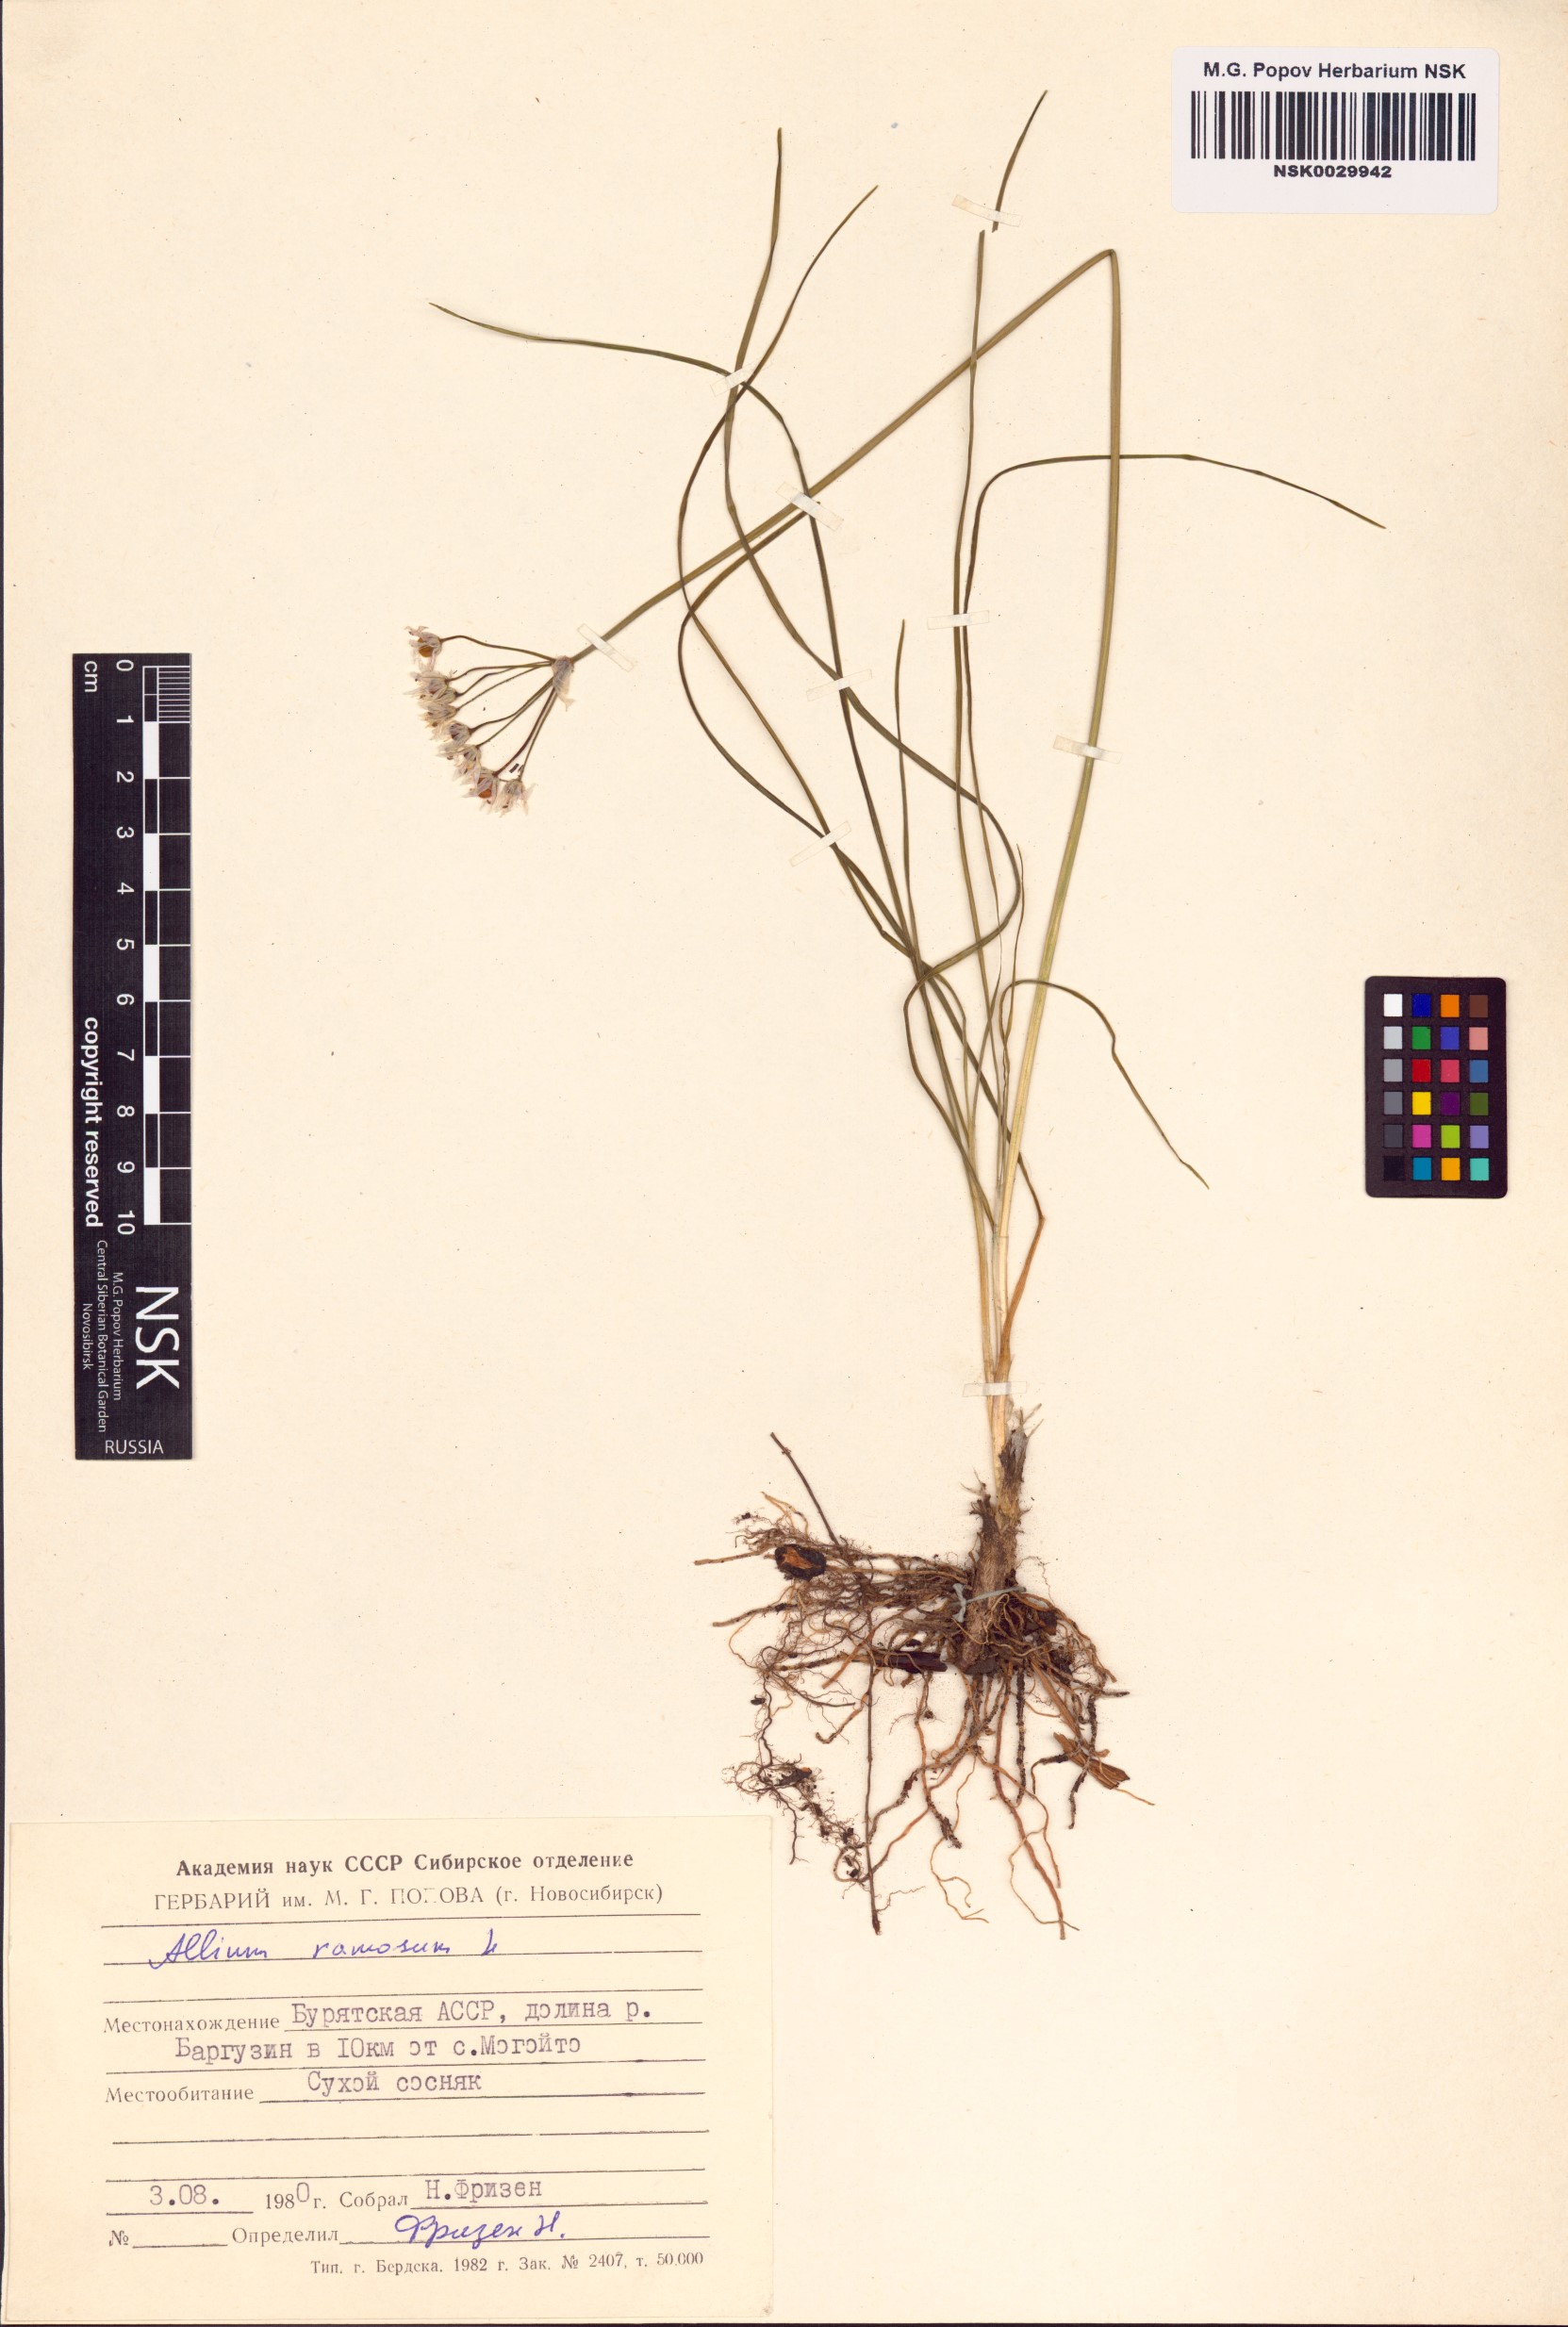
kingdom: Plantae
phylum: Tracheophyta
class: Liliopsida
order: Asparagales
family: Amaryllidaceae
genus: Allium
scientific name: Allium ramosum
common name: Fragrant garlic
